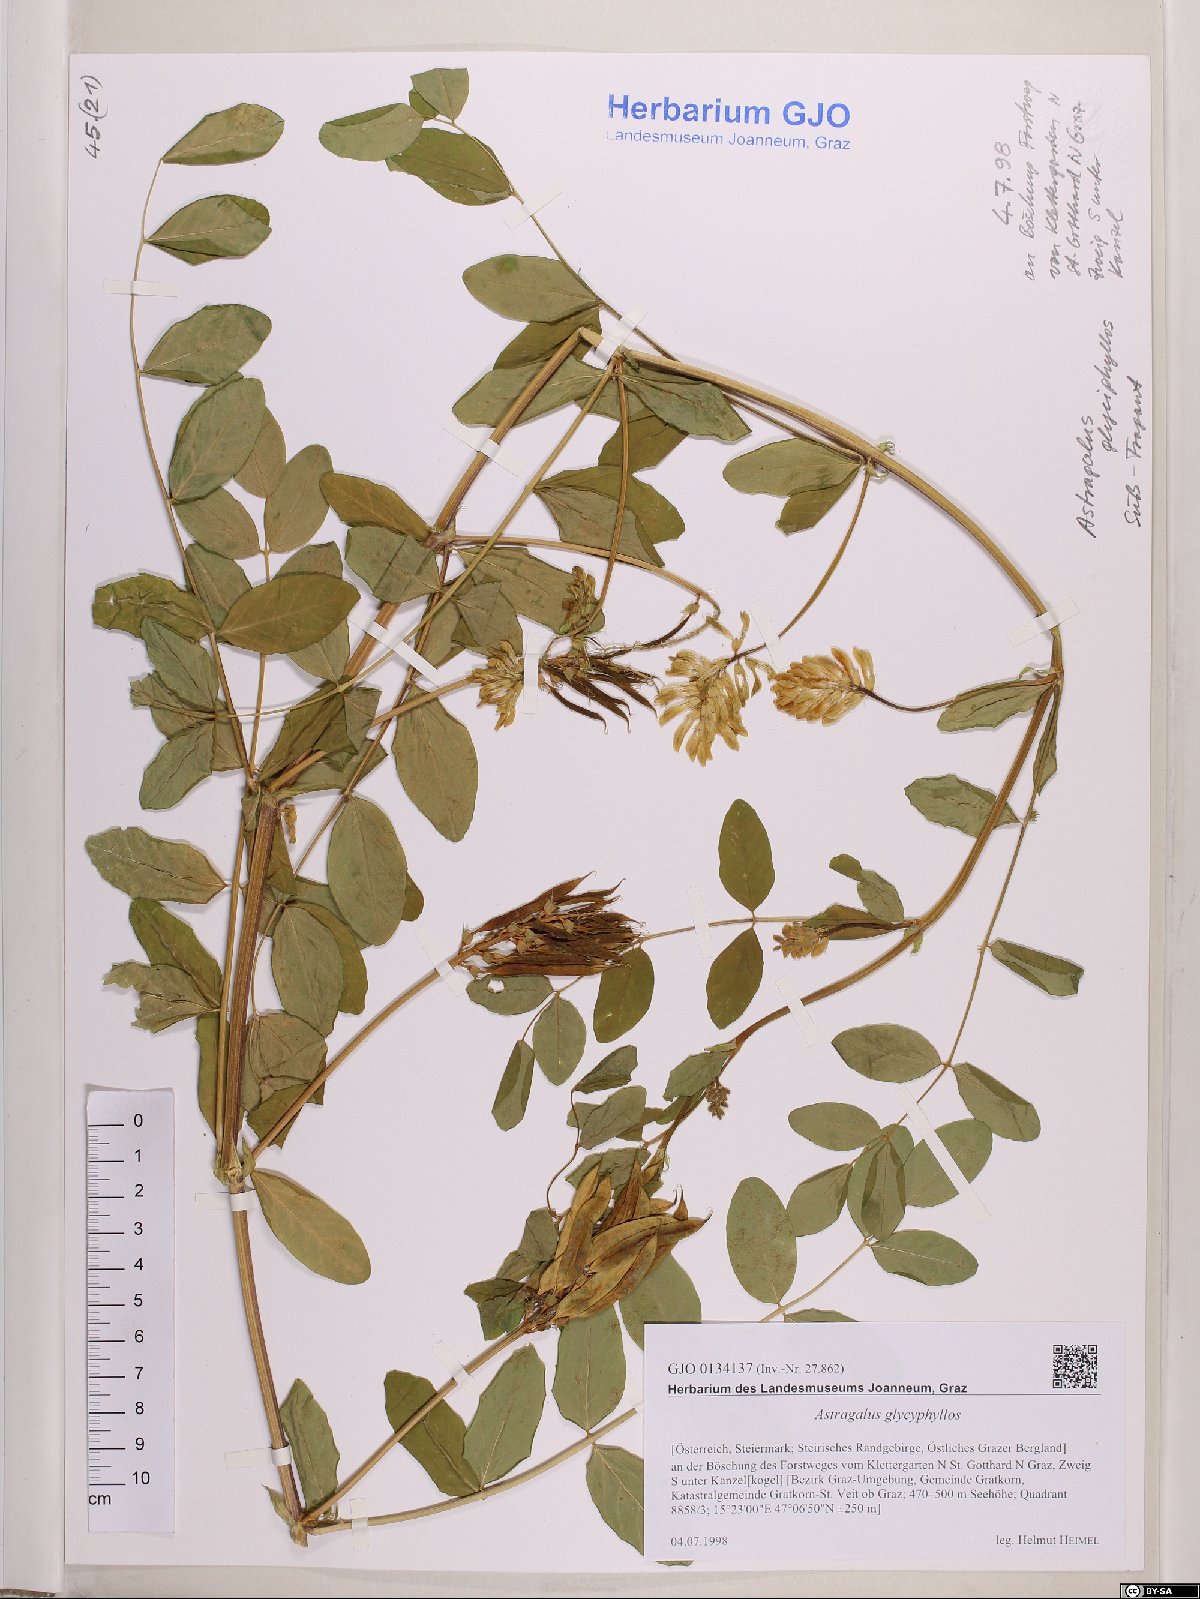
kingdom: Plantae
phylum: Tracheophyta
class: Magnoliopsida
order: Fabales
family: Fabaceae
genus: Astragalus
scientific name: Astragalus glycyphyllos
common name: Wild liquorice
